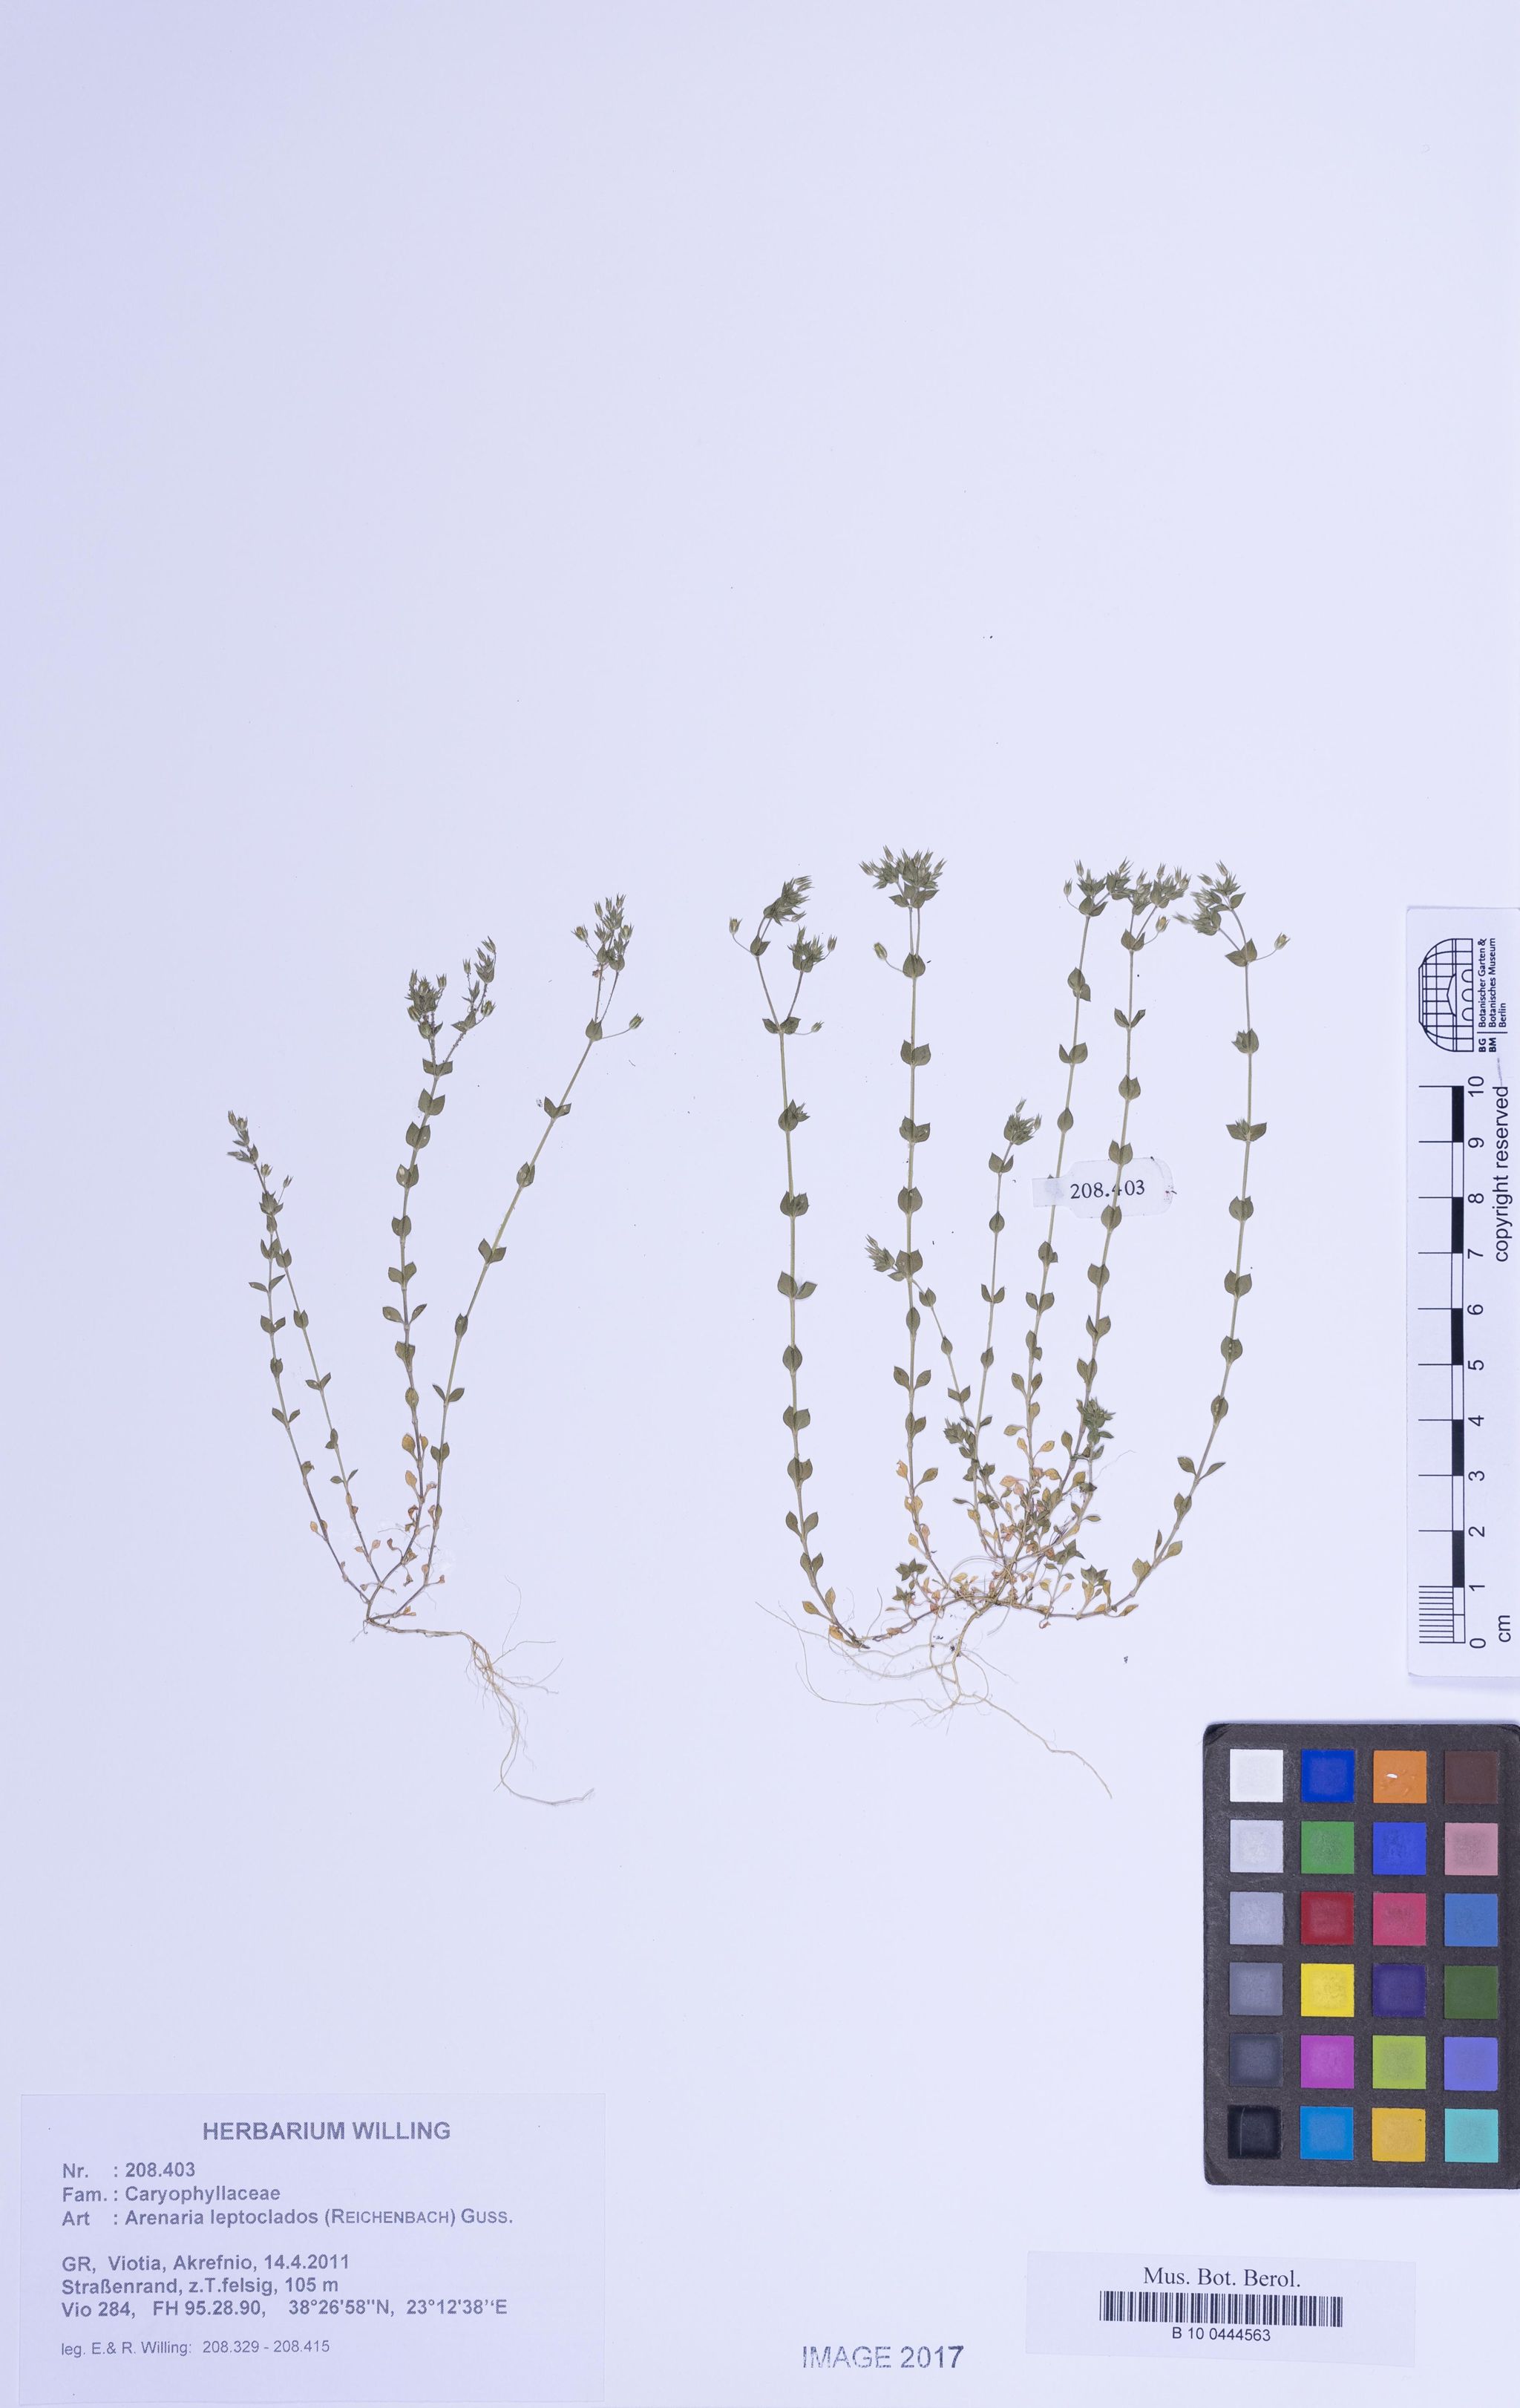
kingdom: Plantae
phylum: Tracheophyta
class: Magnoliopsida
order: Caryophyllales
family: Caryophyllaceae
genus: Arenaria
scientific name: Arenaria leptoclados
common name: Thyme-leaved sandwort
